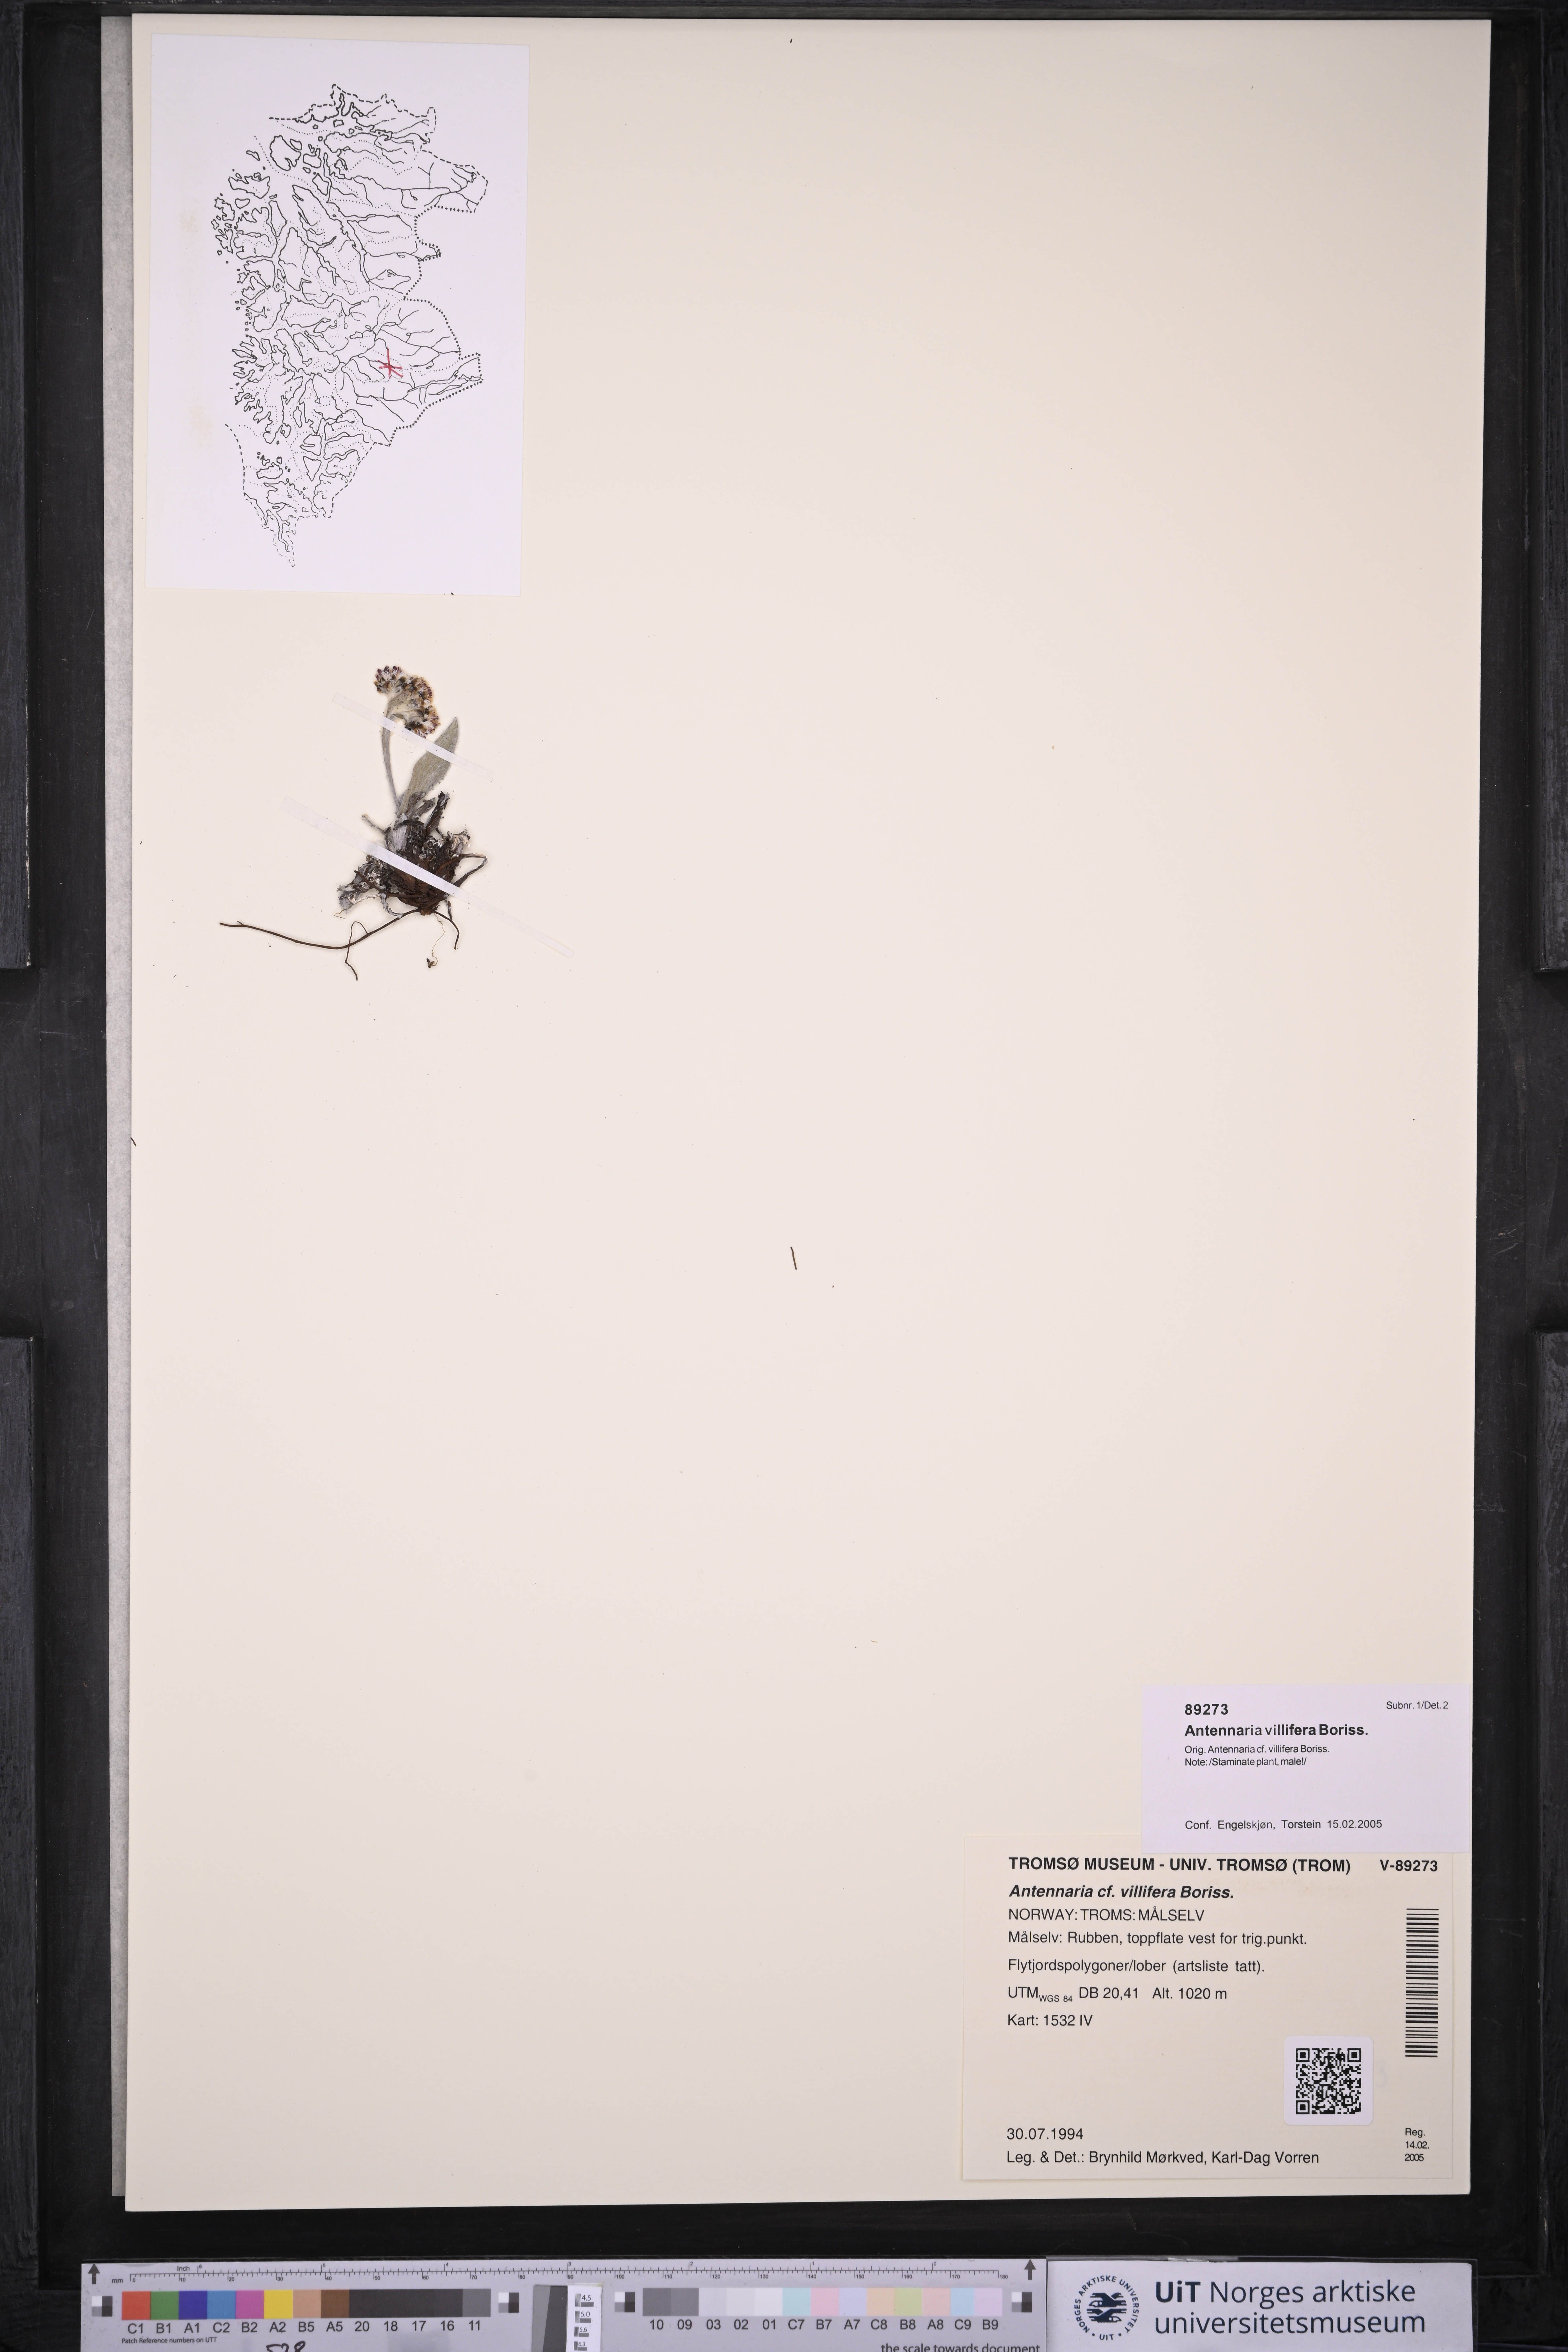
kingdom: Plantae
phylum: Tracheophyta
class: Magnoliopsida
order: Asterales
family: Asteraceae
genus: Antennaria
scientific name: Antennaria lanata
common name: Woolly pussytoes
